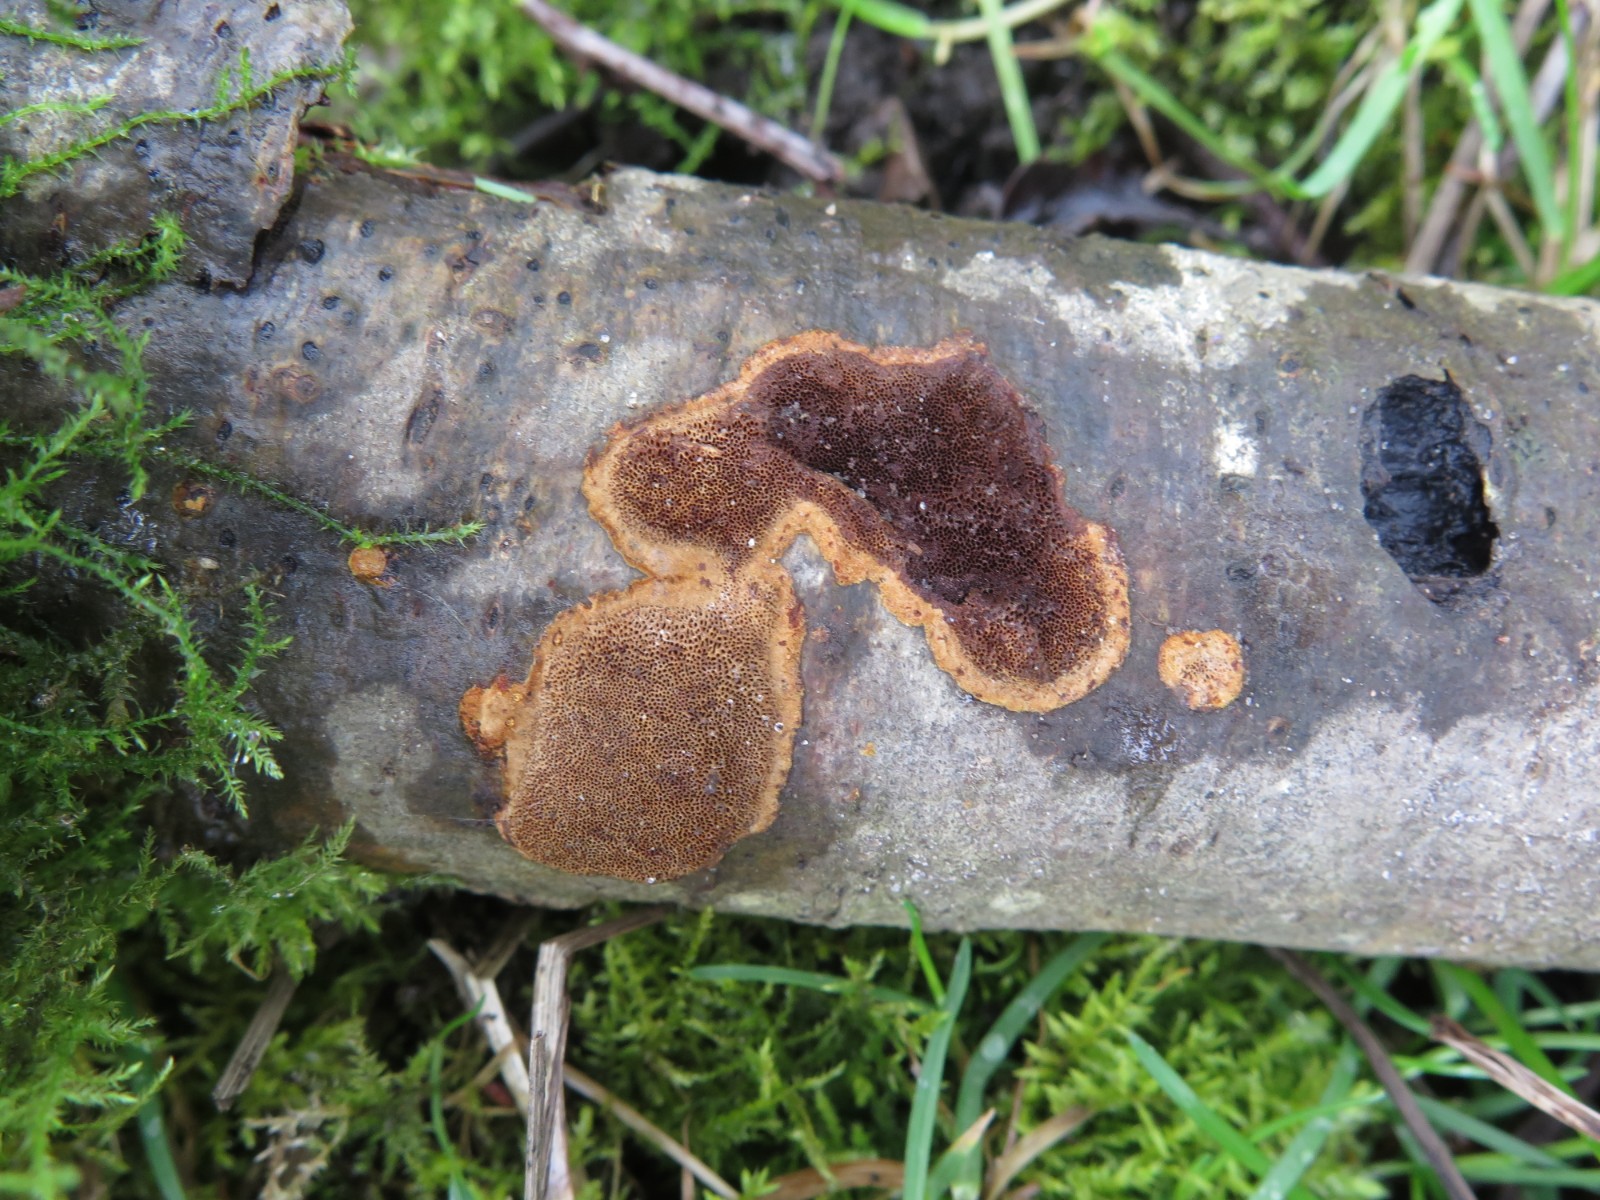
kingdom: Fungi
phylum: Basidiomycota
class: Agaricomycetes
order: Hymenochaetales
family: Hymenochaetaceae
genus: Fuscoporia
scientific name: Fuscoporia ferrea
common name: skorpe-ildporesvamp
